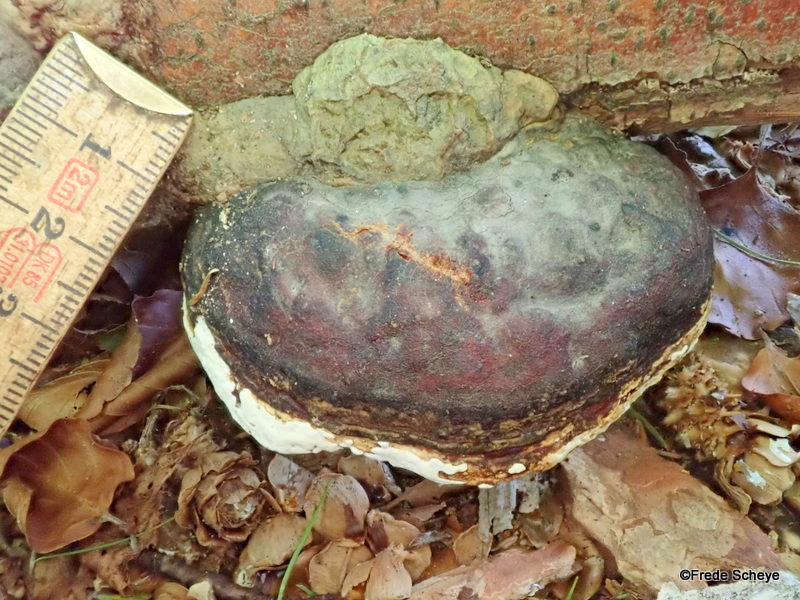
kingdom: Fungi
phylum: Basidiomycota
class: Agaricomycetes
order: Polyporales
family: Fomitopsidaceae
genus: Fomitopsis
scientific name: Fomitopsis pinicola
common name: randbæltet hovporesvamp
